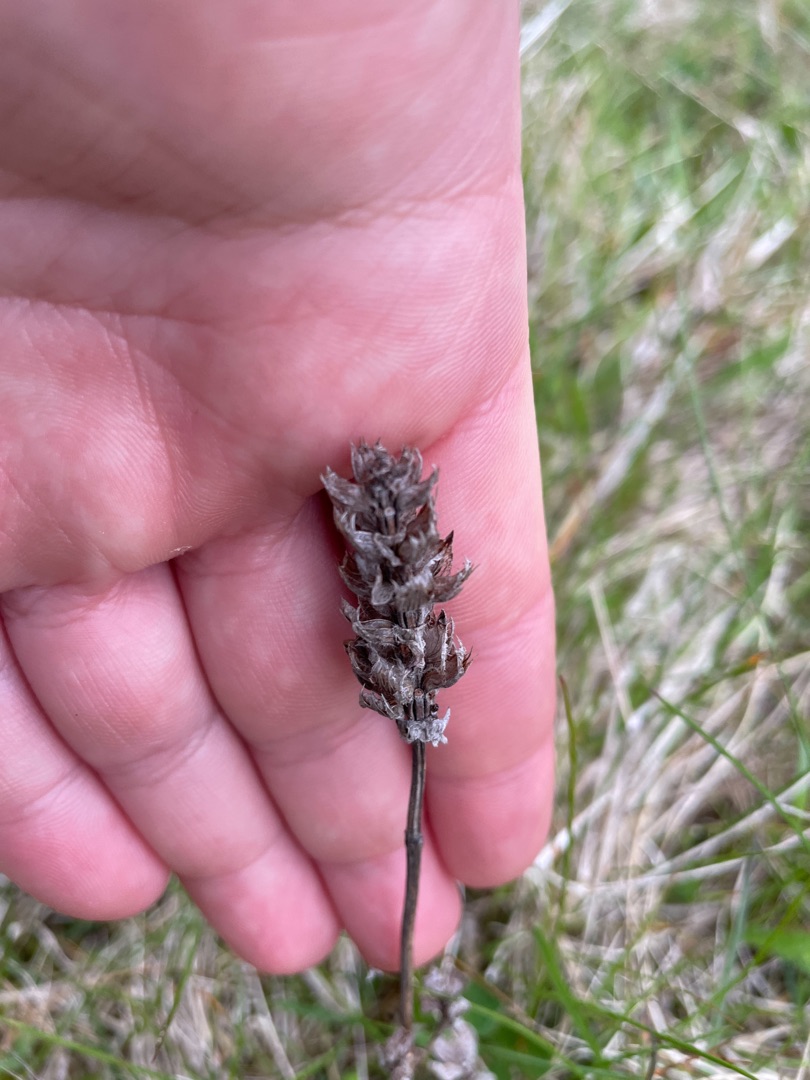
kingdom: Plantae
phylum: Tracheophyta
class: Magnoliopsida
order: Lamiales
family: Lamiaceae
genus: Prunella
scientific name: Prunella vulgaris
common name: Almindelig brunelle
